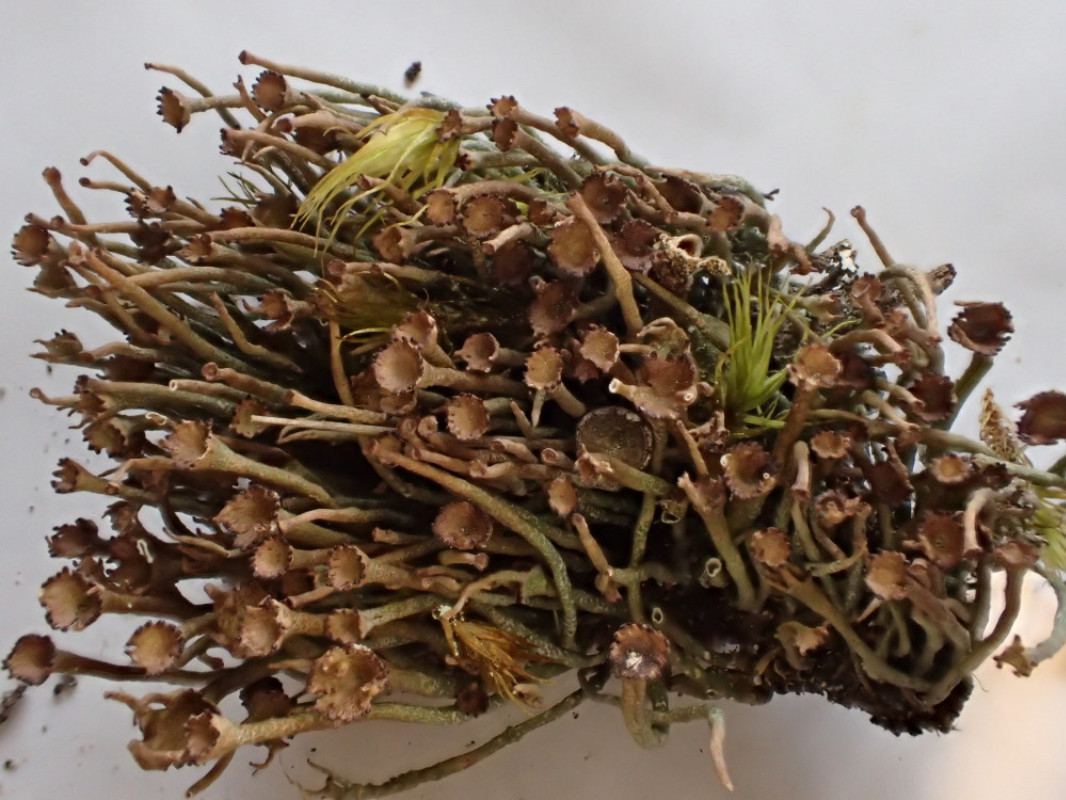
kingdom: Fungi
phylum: Ascomycota
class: Lecanoromycetes
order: Lecanorales
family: Cladoniaceae
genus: Cladonia
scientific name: Cladonia gracilis
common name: slank bægerlav
